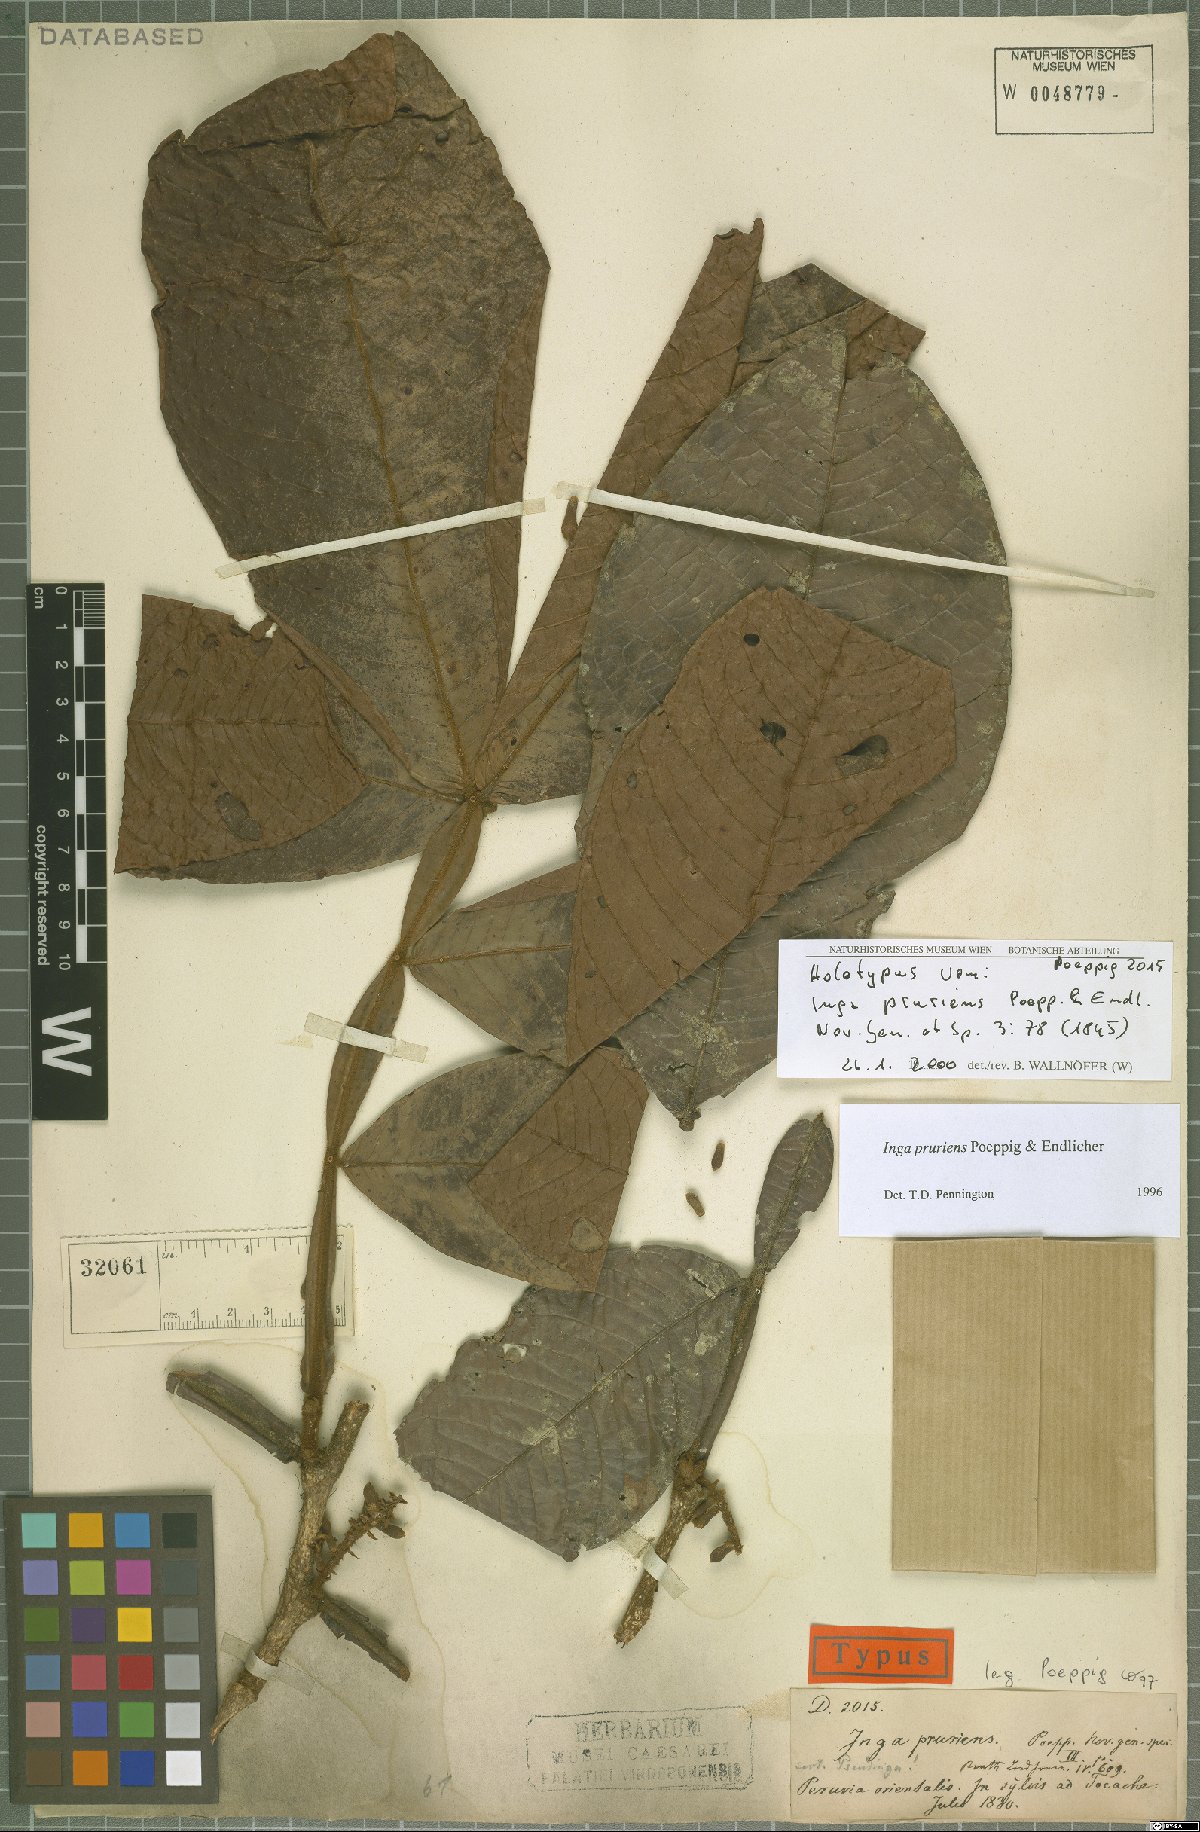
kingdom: Plantae
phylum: Tracheophyta
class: Magnoliopsida
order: Fabales
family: Fabaceae
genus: Inga
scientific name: Inga pruriens
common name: Howler monkey inga
